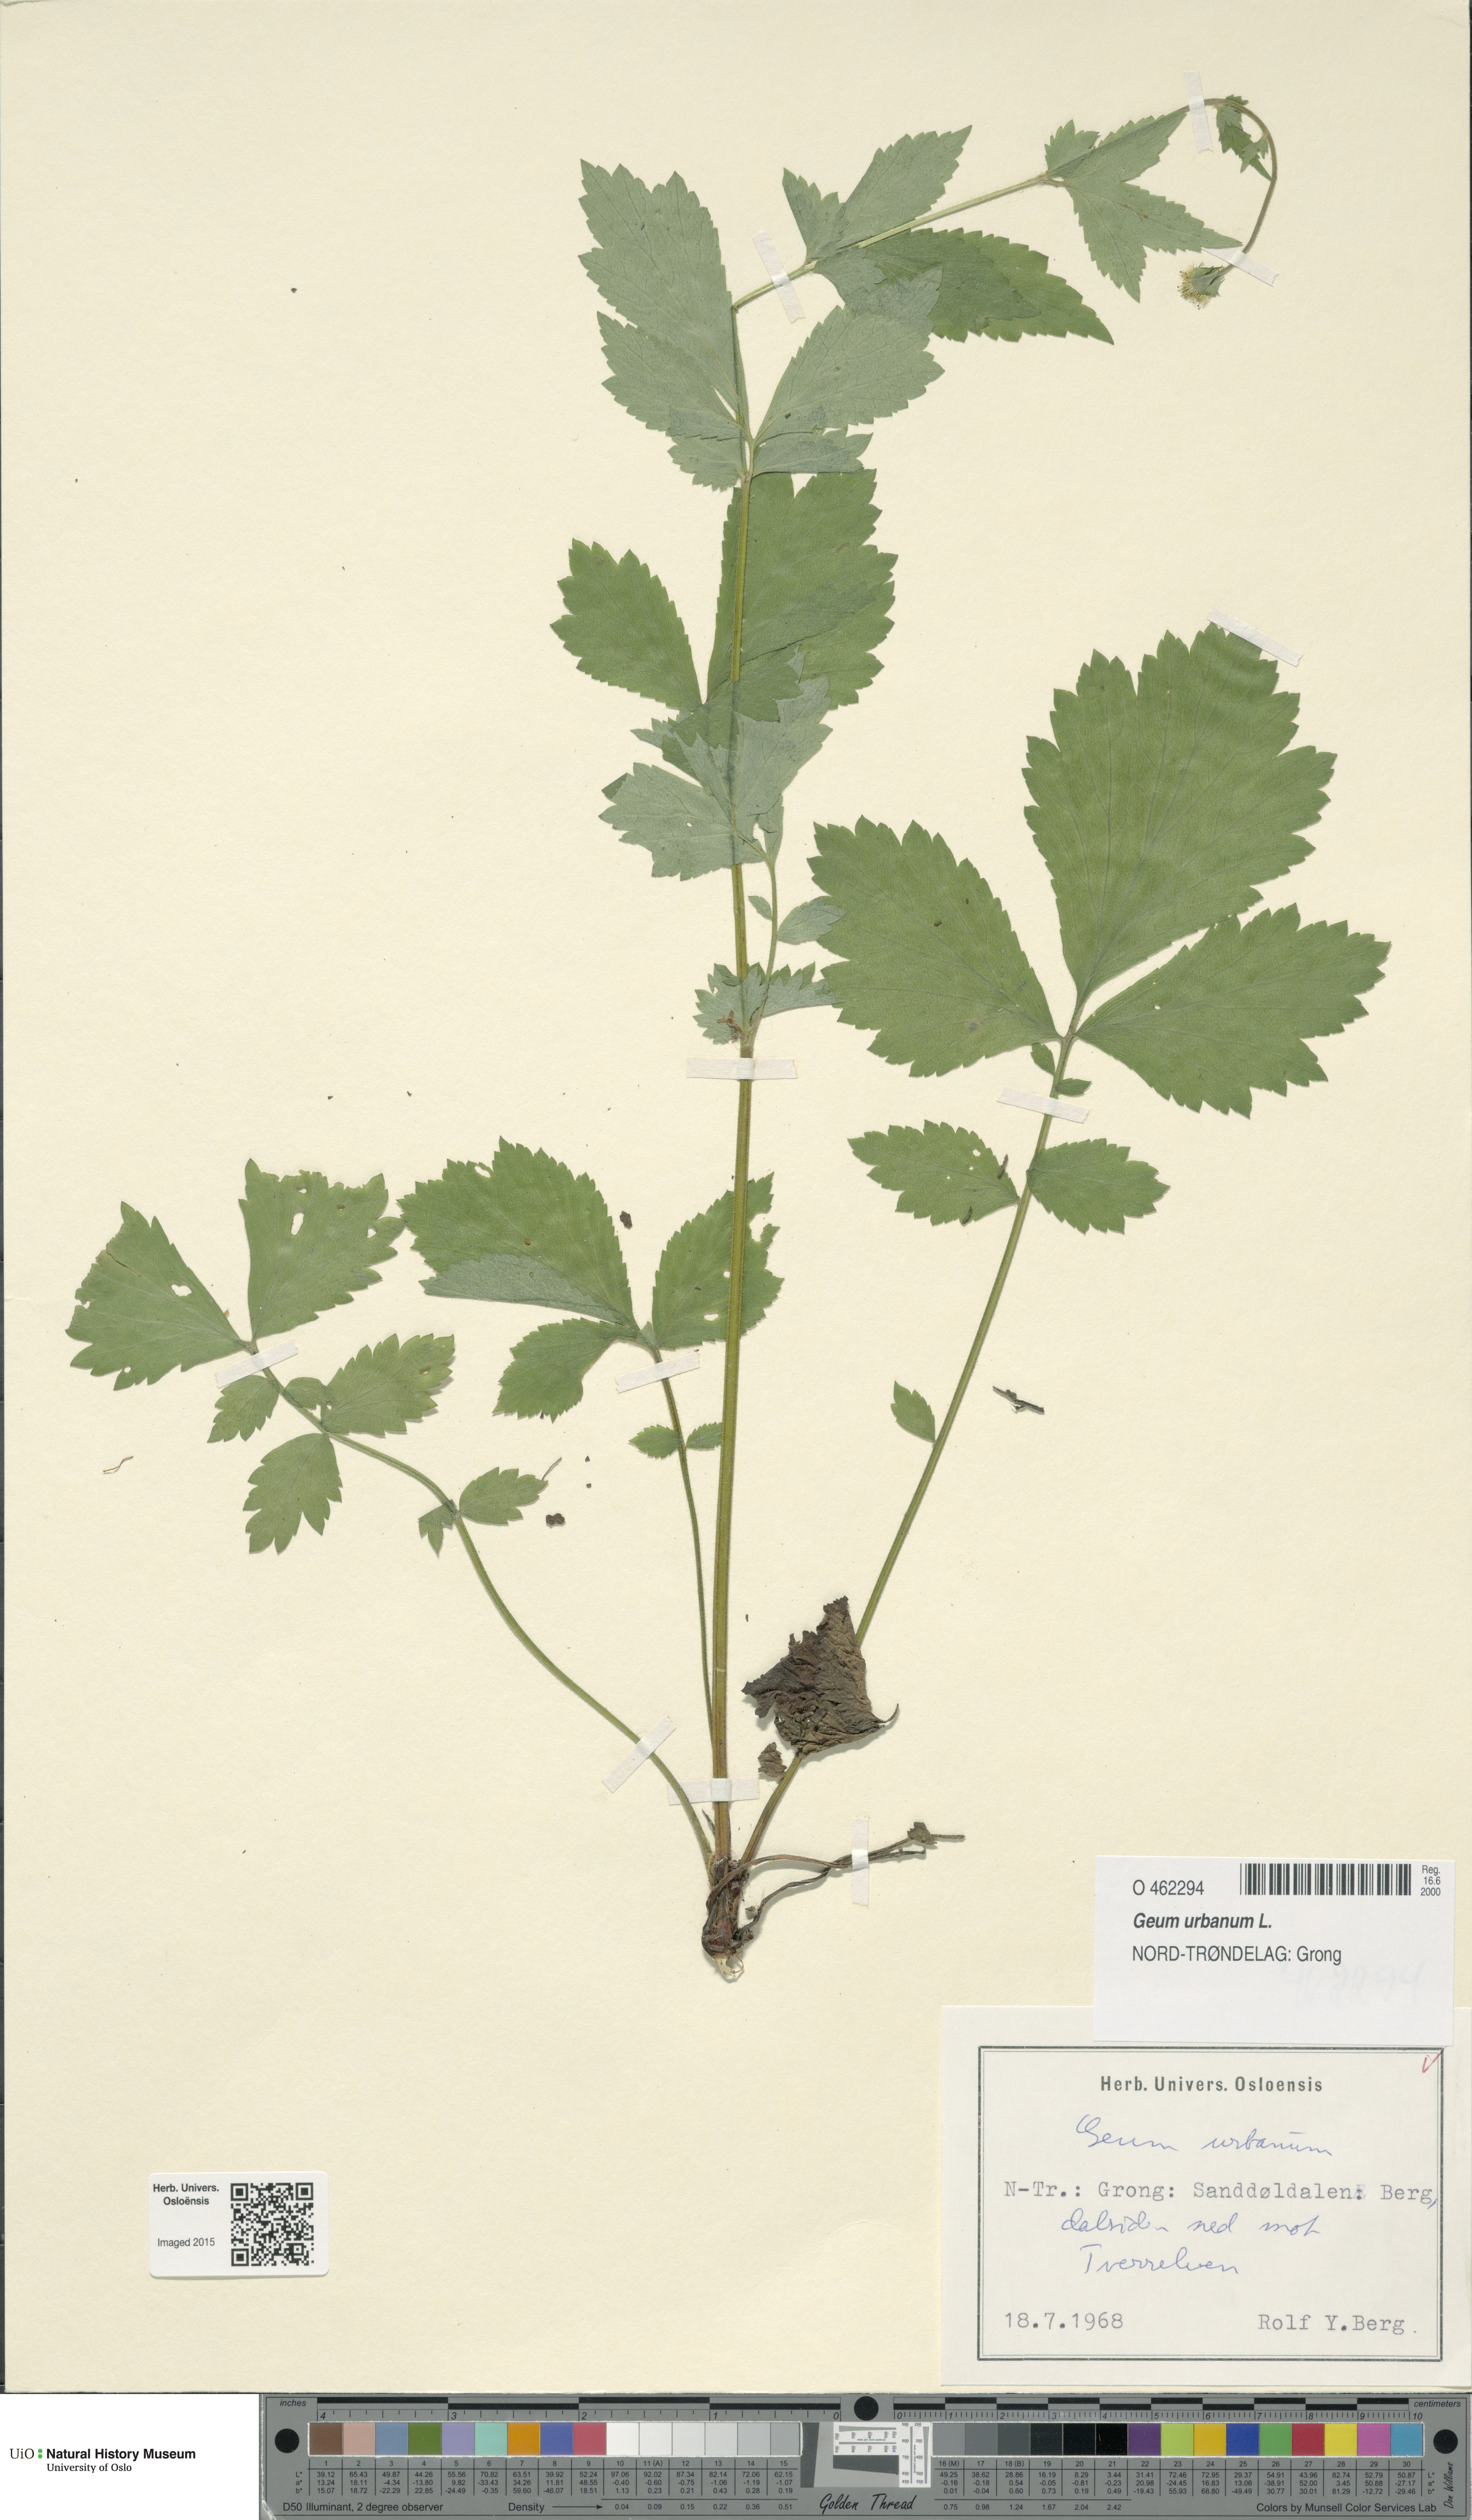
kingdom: Plantae
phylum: Tracheophyta
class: Magnoliopsida
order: Rosales
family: Rosaceae
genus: Geum
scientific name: Geum urbanum
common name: Wood avens
